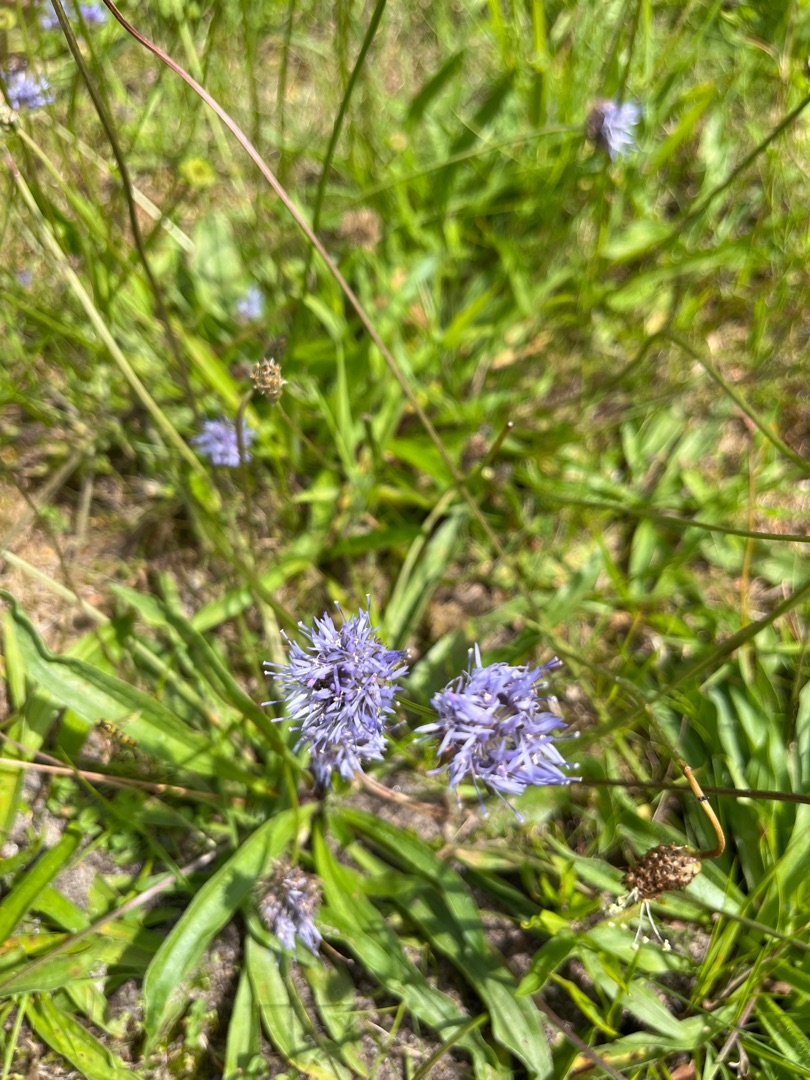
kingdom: Plantae
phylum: Tracheophyta
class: Magnoliopsida
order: Asterales
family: Campanulaceae
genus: Jasione
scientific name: Jasione montana
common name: Blåmunke
